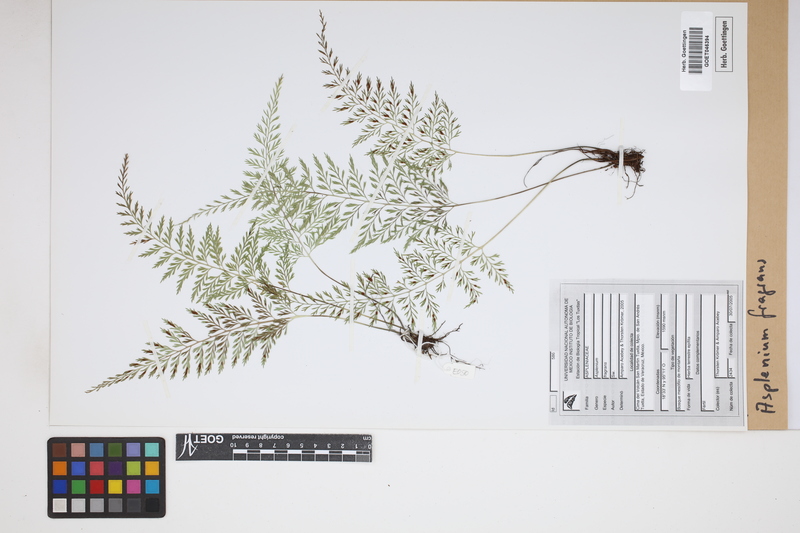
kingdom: Plantae
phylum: Tracheophyta
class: Polypodiopsida
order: Polypodiales
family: Aspleniaceae
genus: Asplenium
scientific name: Asplenium fragrans
